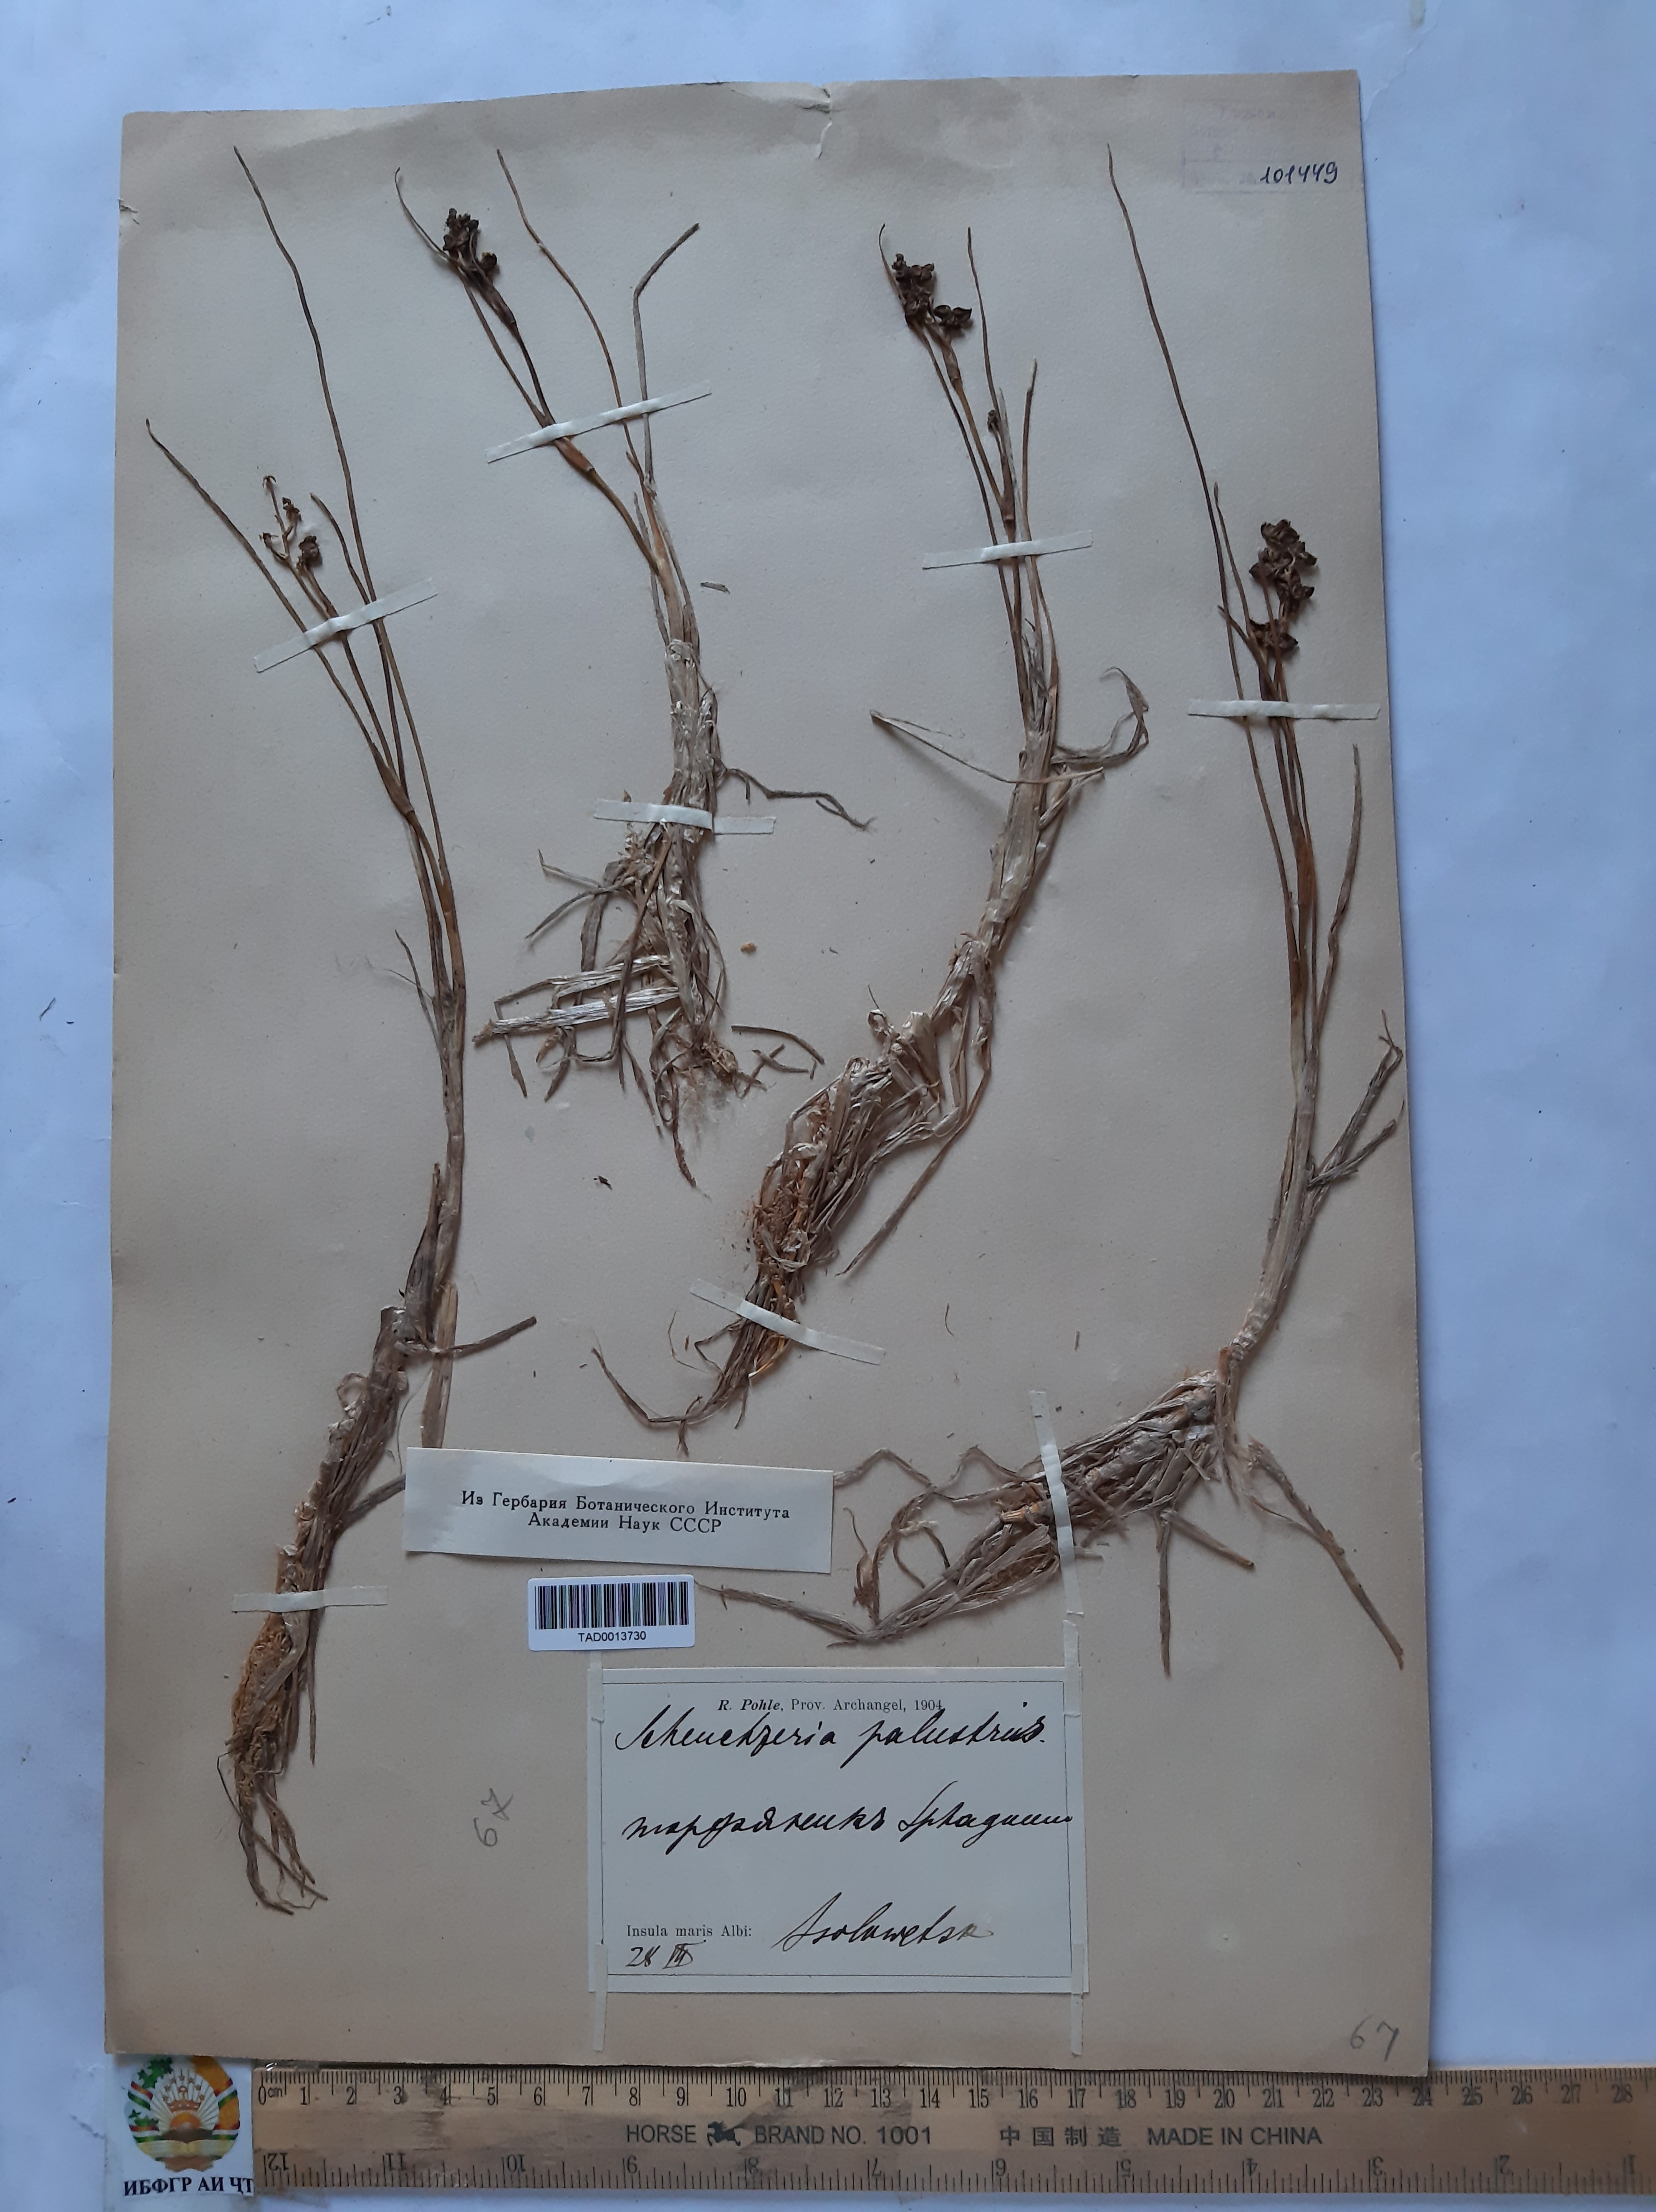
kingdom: Plantae
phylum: Tracheophyta
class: Liliopsida
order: Alismatales
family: Juncaginaceae
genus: Triglochin
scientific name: Triglochin palustris
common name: Marsh arrowgrass
